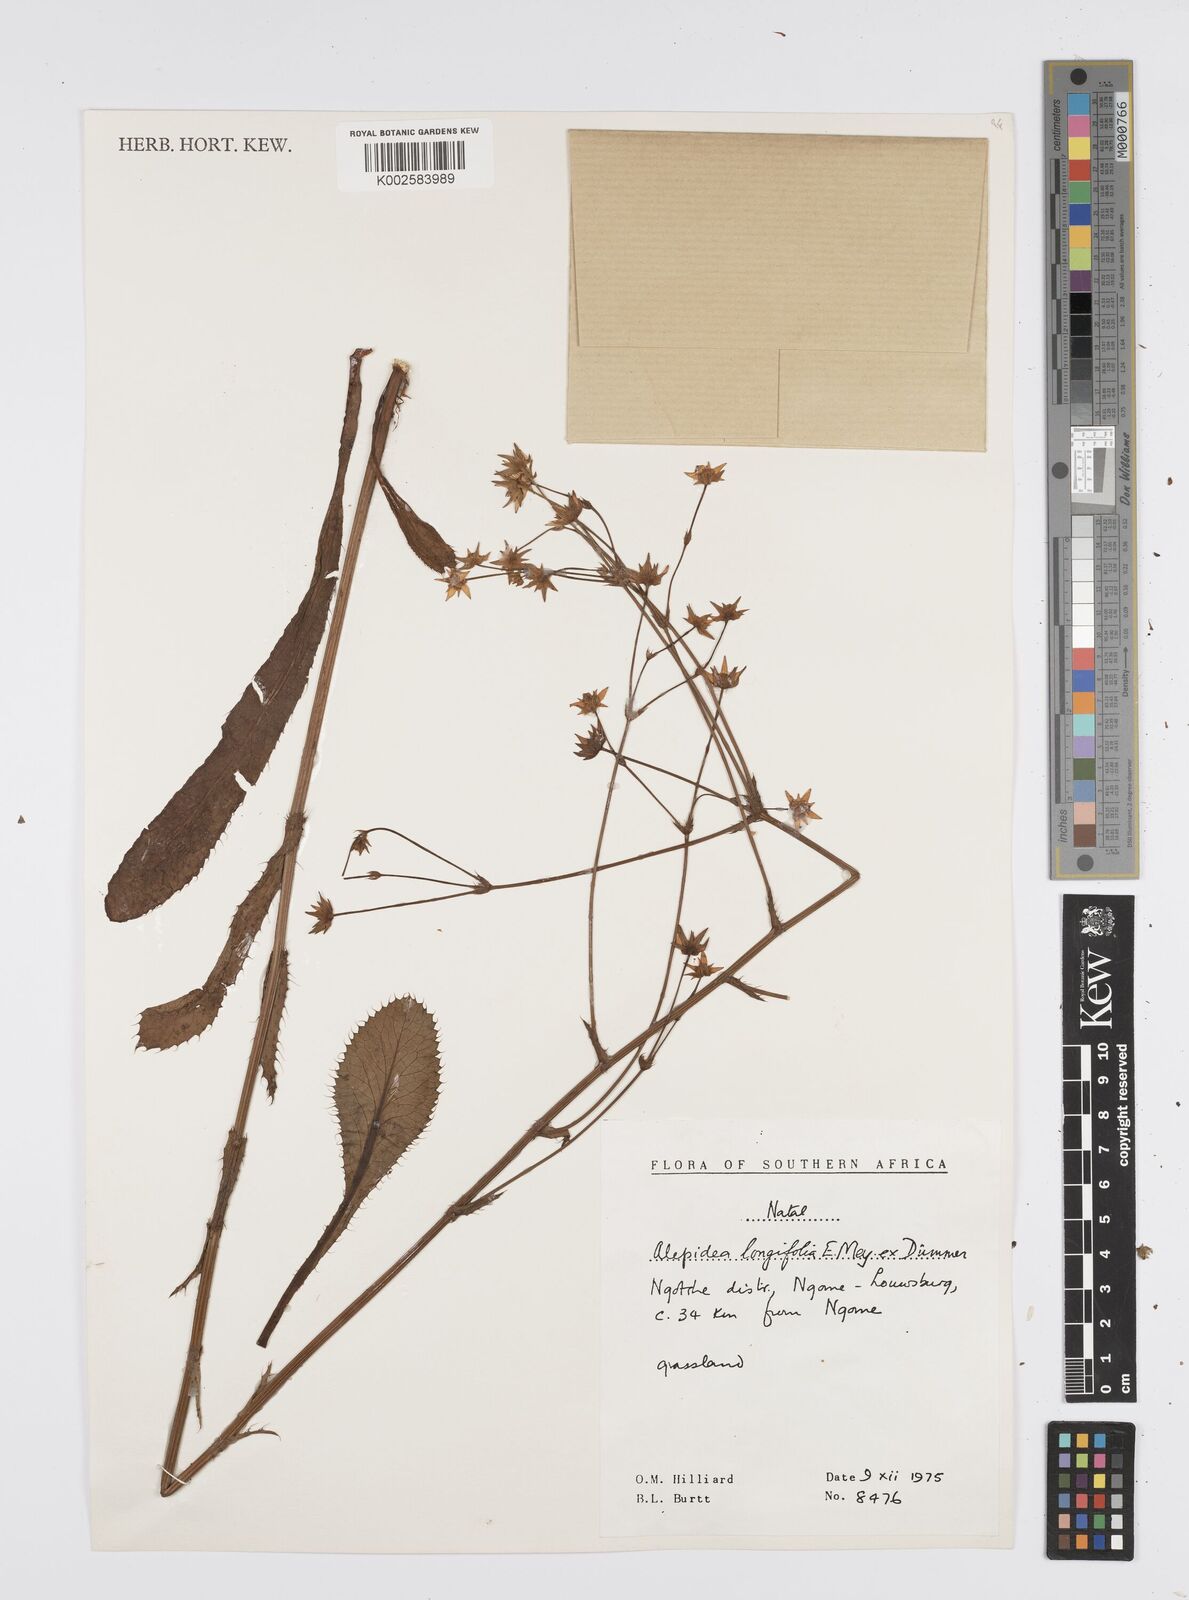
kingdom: Plantae
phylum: Tracheophyta
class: Magnoliopsida
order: Apiales
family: Apiaceae
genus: Alepidea
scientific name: Alepidea
